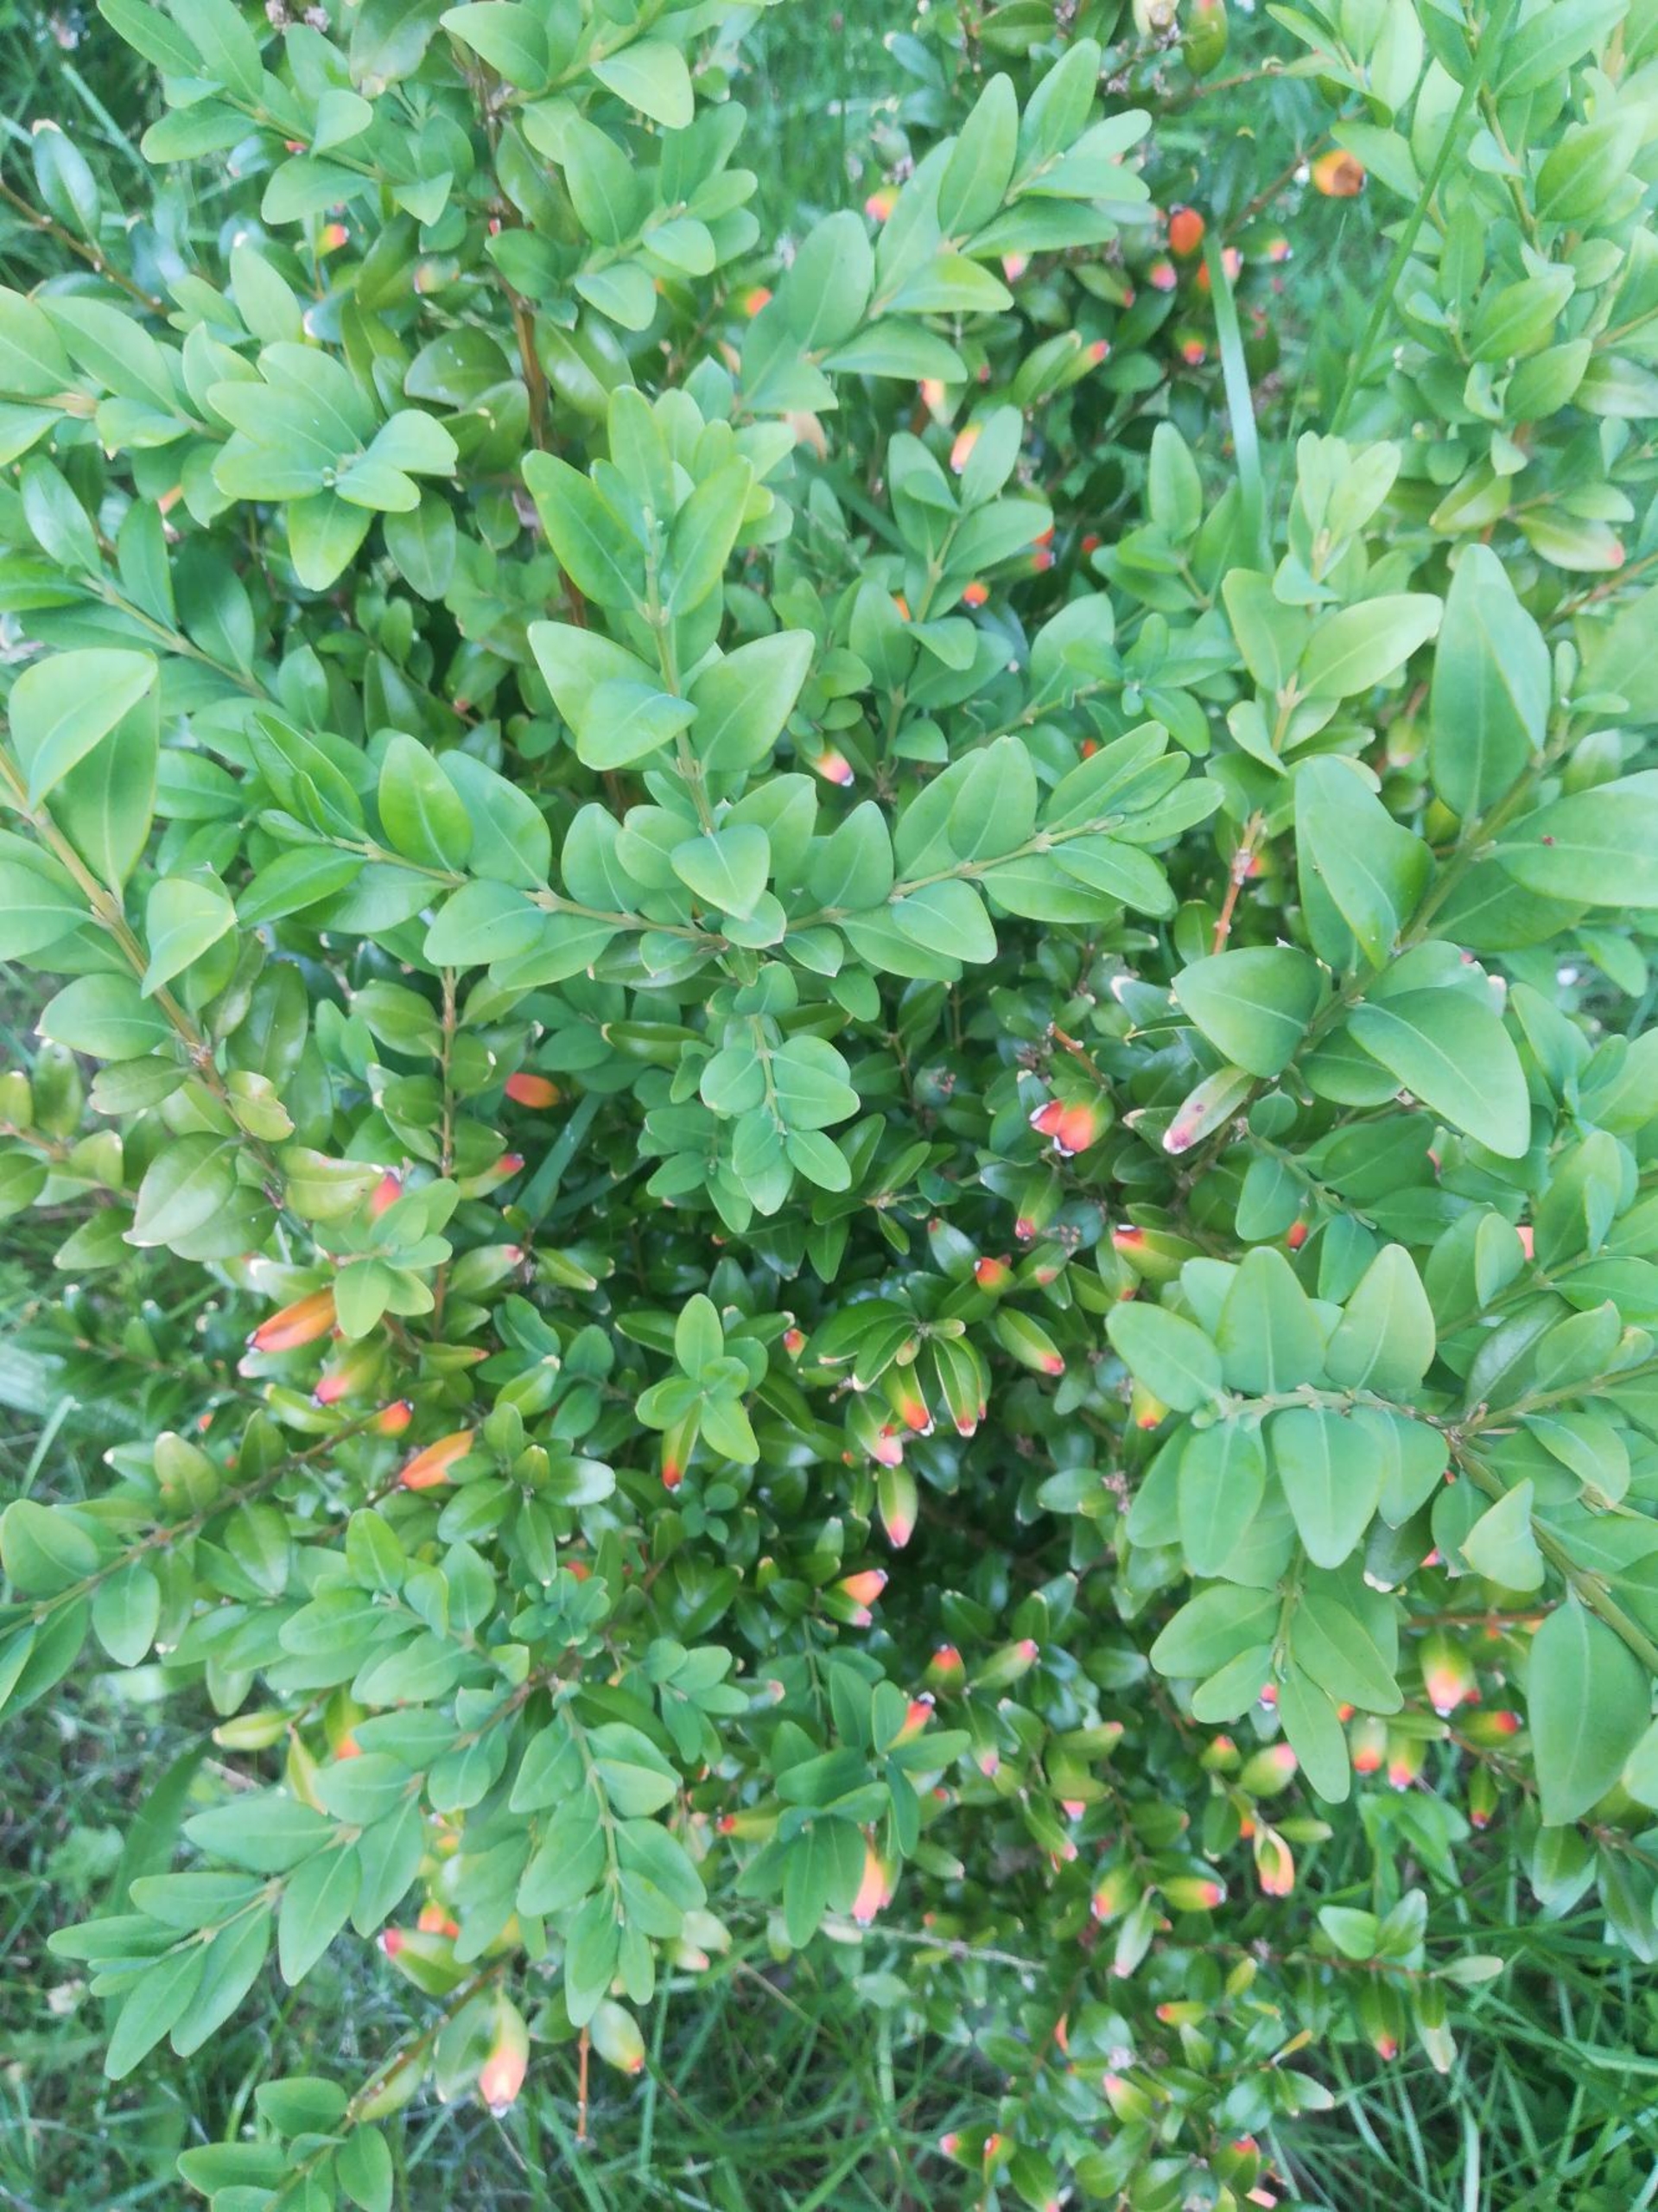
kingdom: Plantae
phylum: Tracheophyta
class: Magnoliopsida
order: Buxales
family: Buxaceae
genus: Buxus
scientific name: Buxus microphylla
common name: Småbladet buksbom
